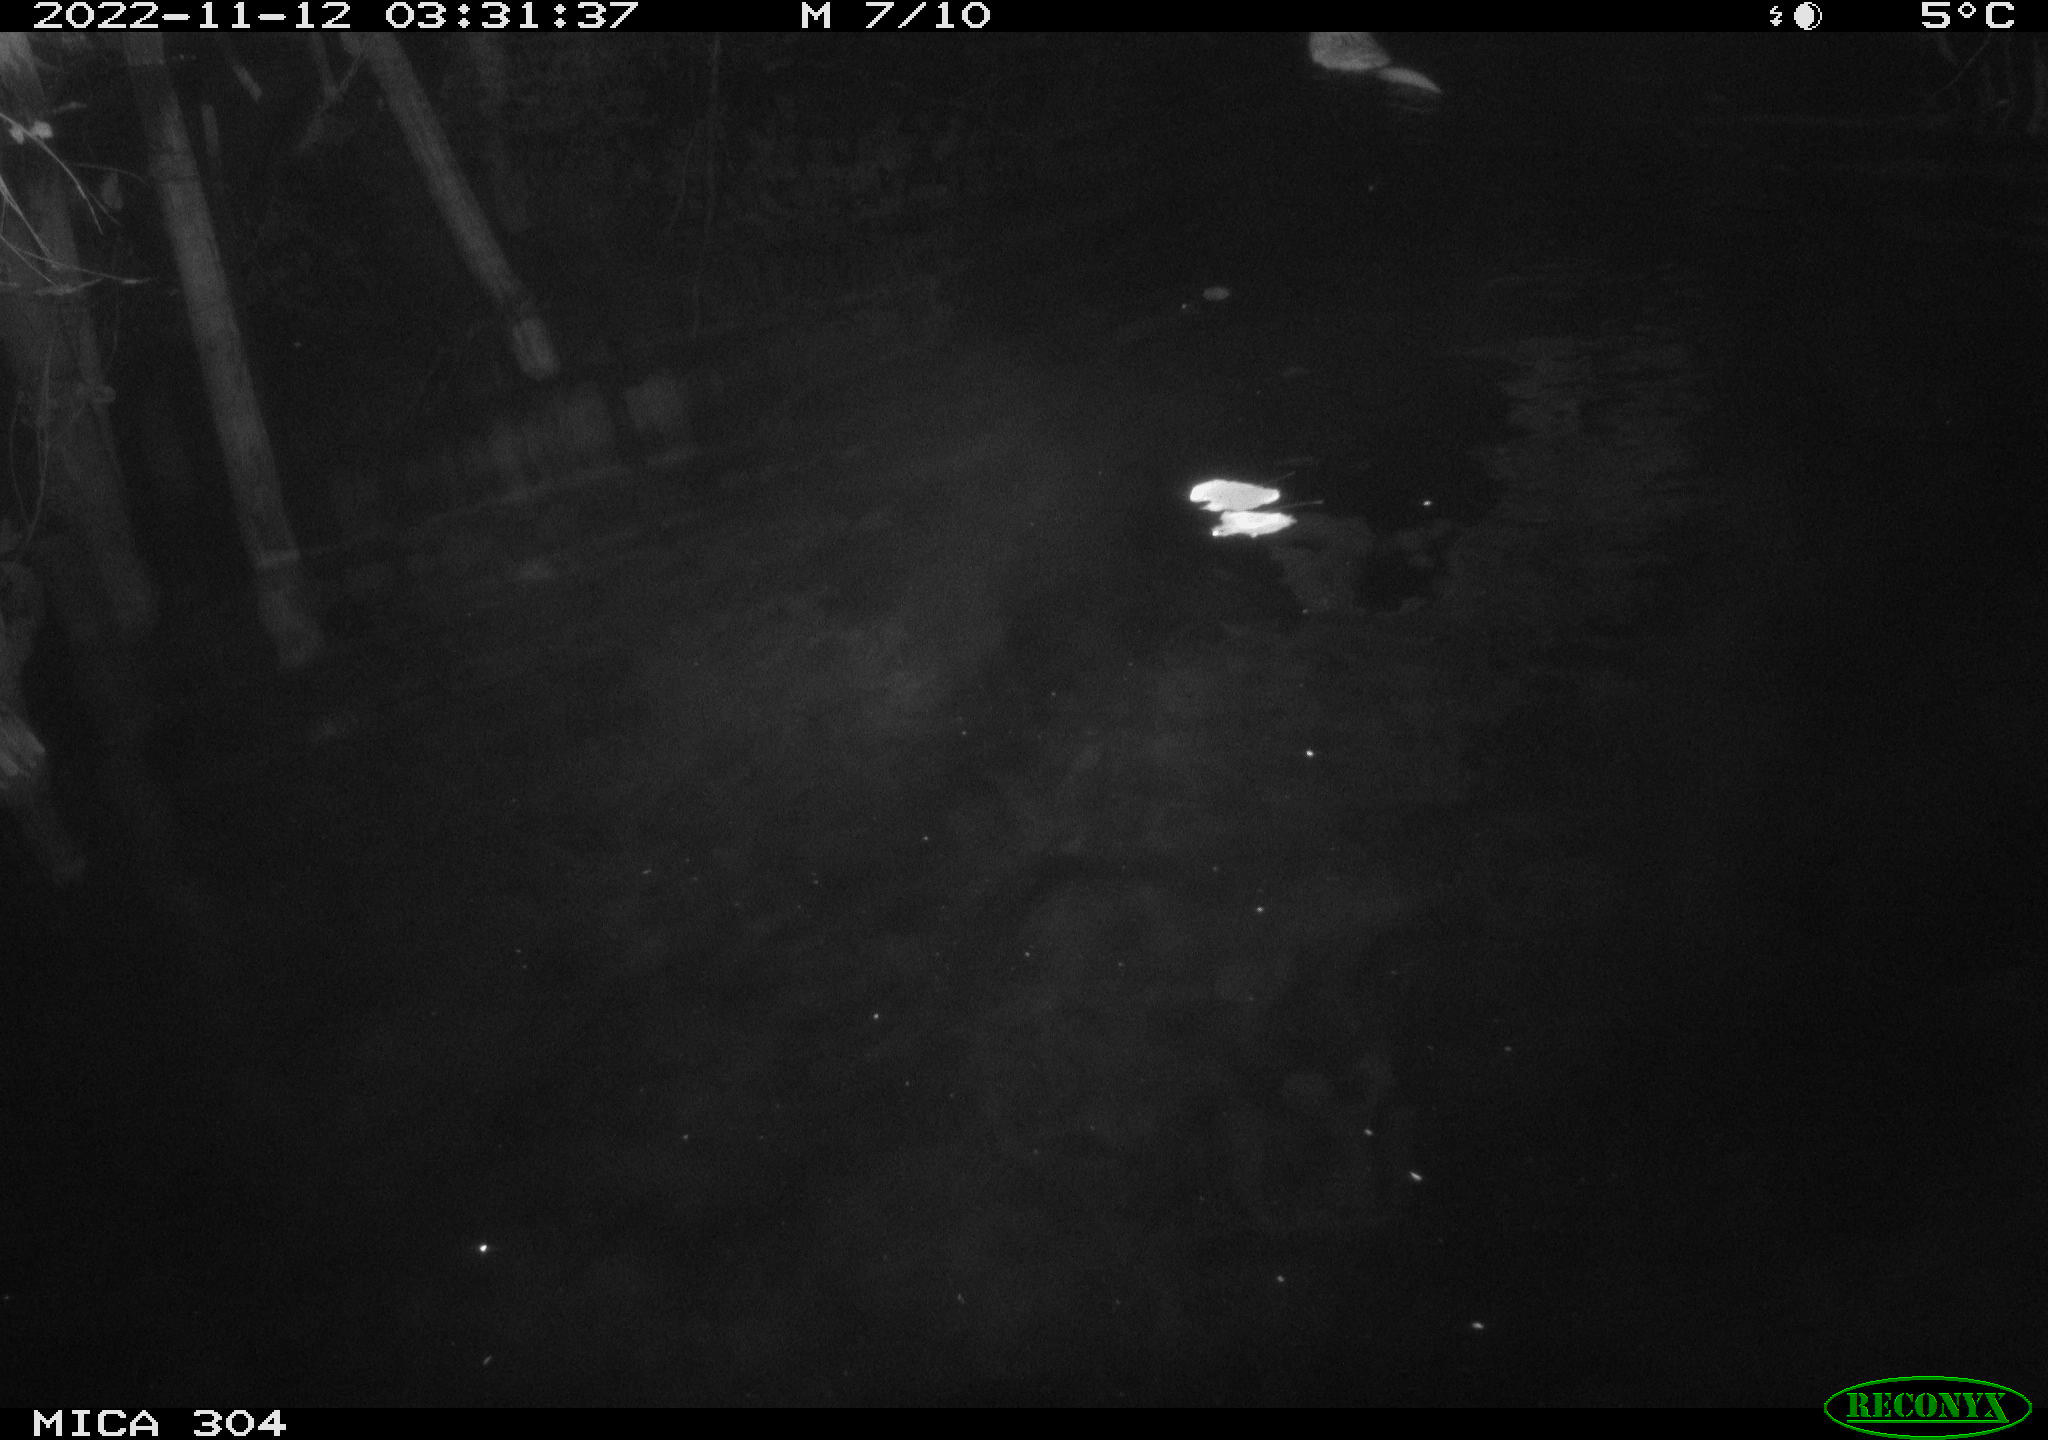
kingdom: Animalia
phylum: Chordata
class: Mammalia
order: Rodentia
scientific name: Rodentia
